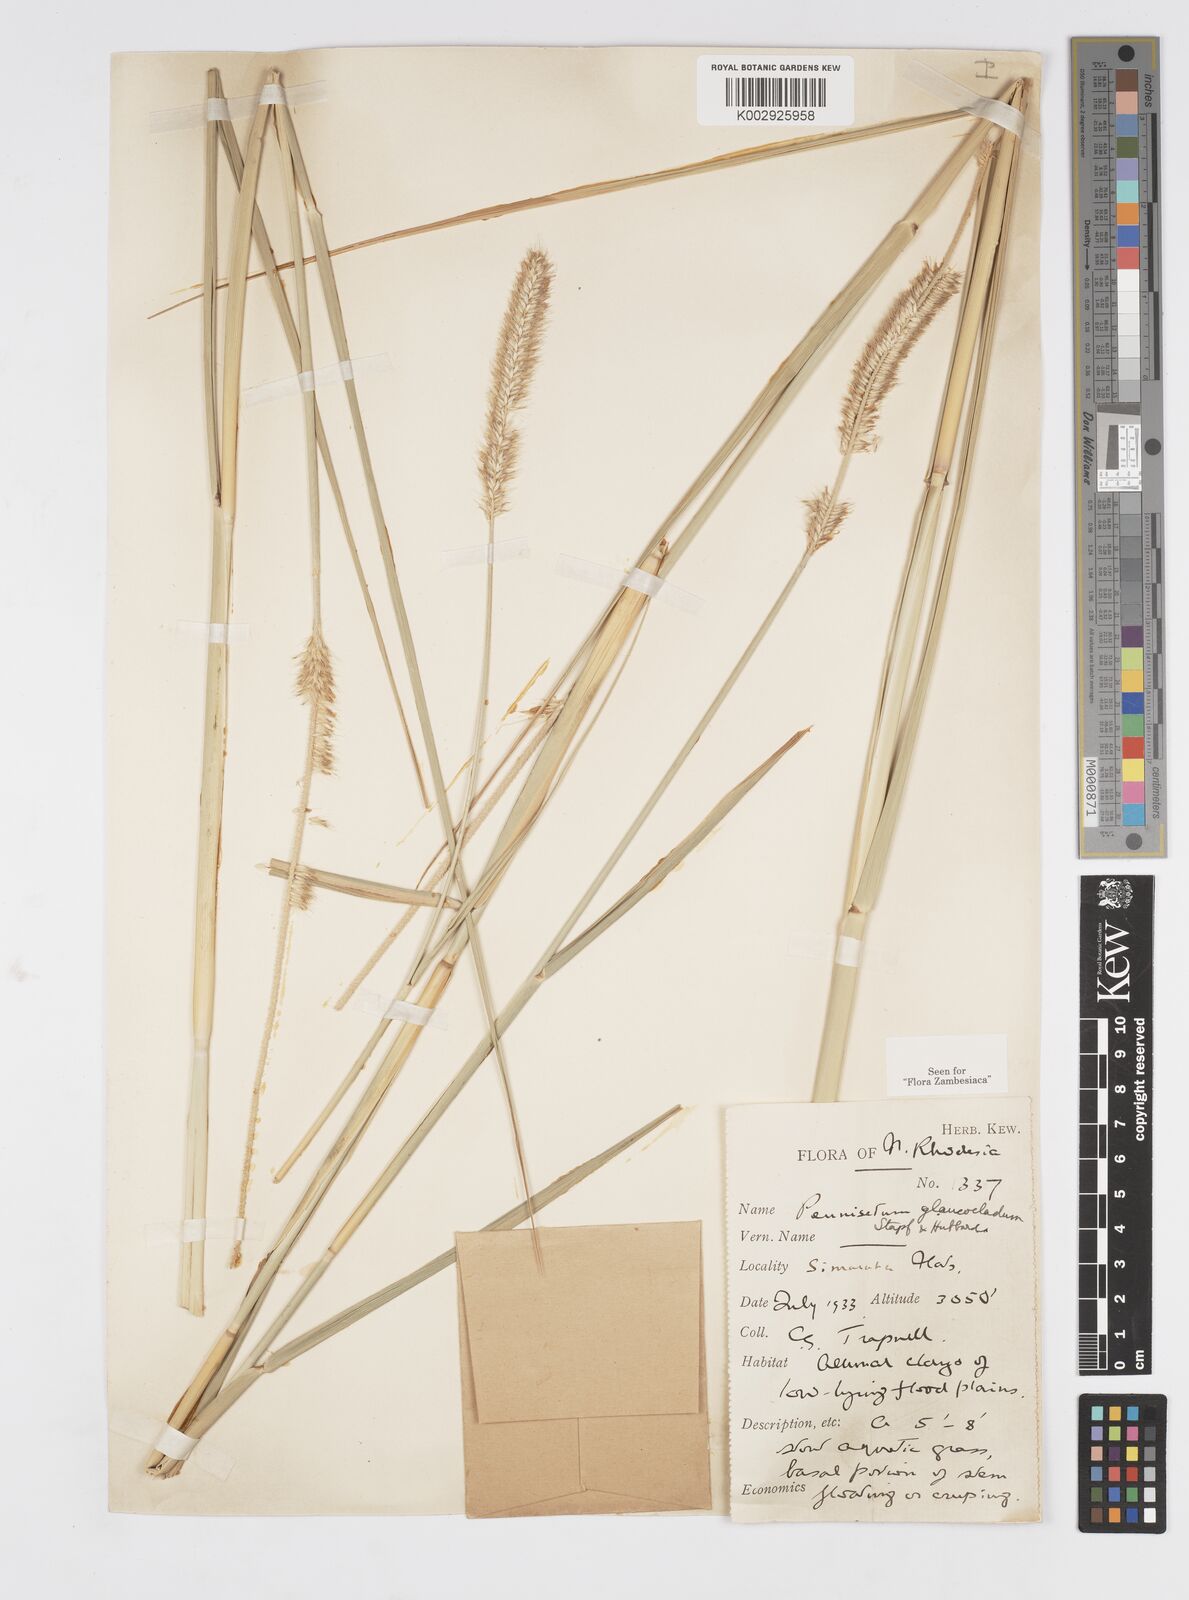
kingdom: Plantae
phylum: Tracheophyta
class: Liliopsida
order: Poales
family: Poaceae
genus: Cenchrus
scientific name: Cenchrus caudatus
